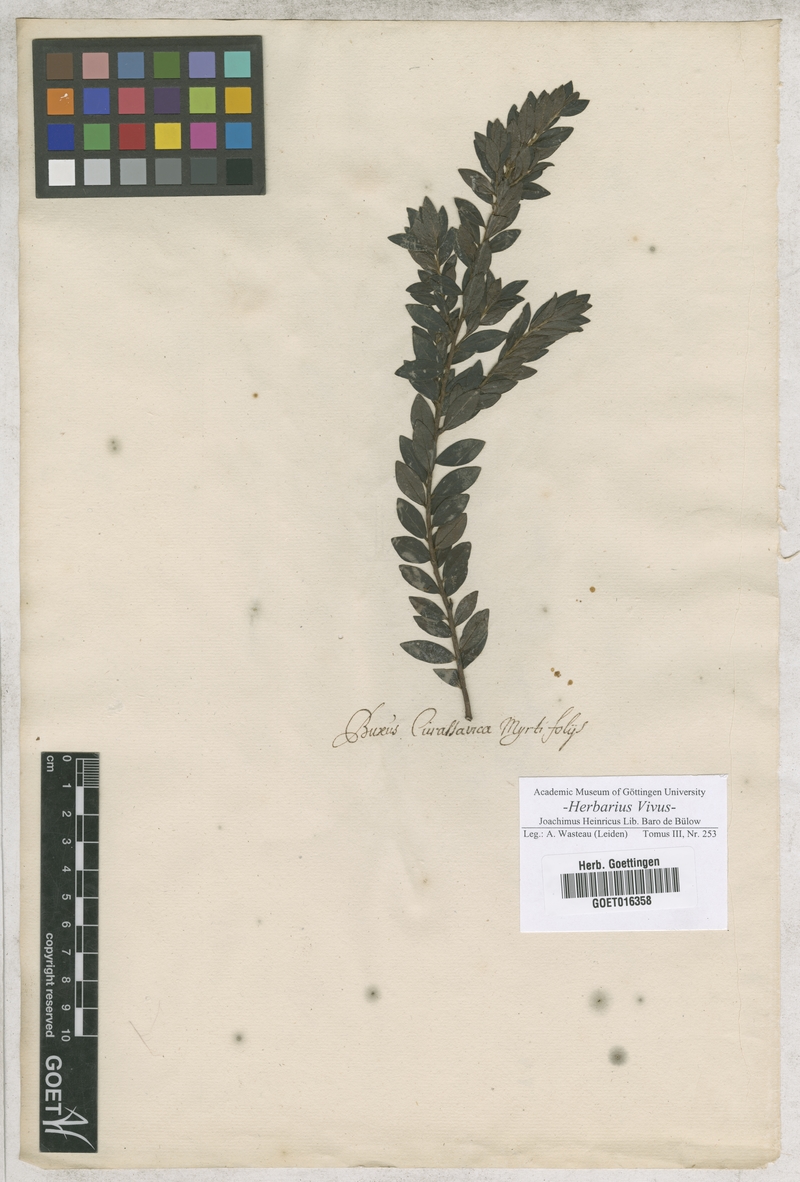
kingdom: Plantae
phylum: Tracheophyta
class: Magnoliopsida
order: Buxales
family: Buxaceae
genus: Buxus
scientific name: Buxus
